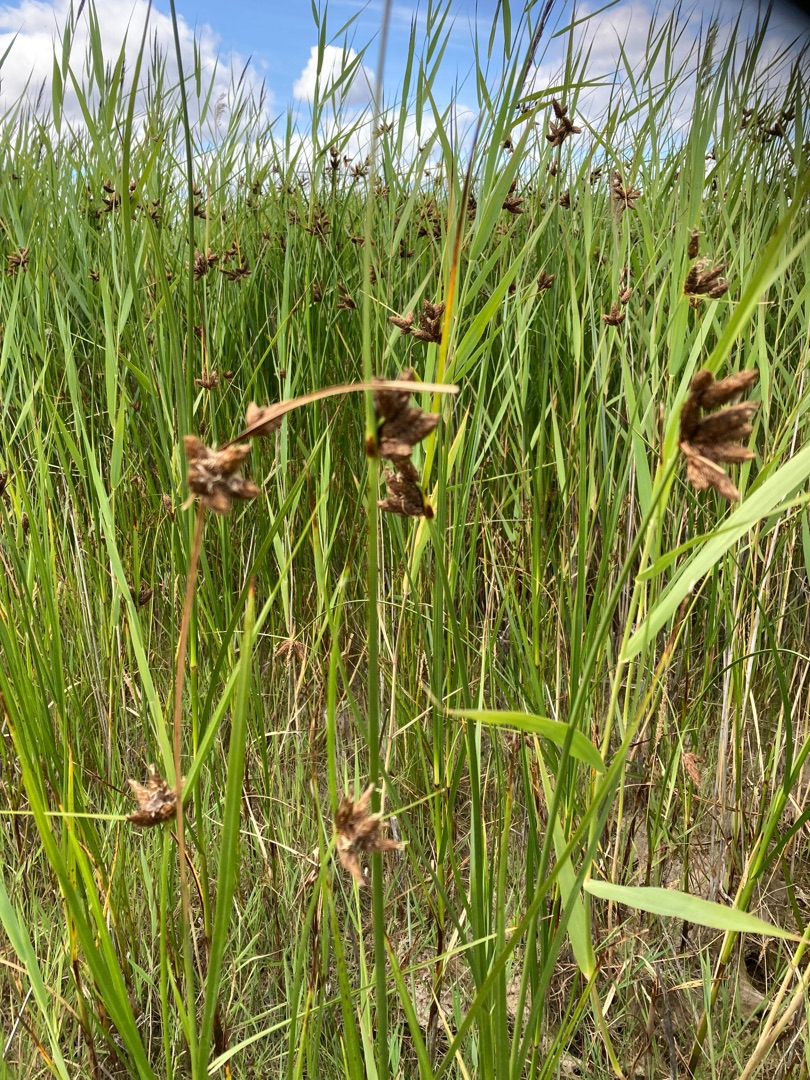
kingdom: Plantae
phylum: Tracheophyta
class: Liliopsida
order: Poales
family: Cyperaceae
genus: Bolboschoenus
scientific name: Bolboschoenus maritimus
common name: Strand-kogleaks
